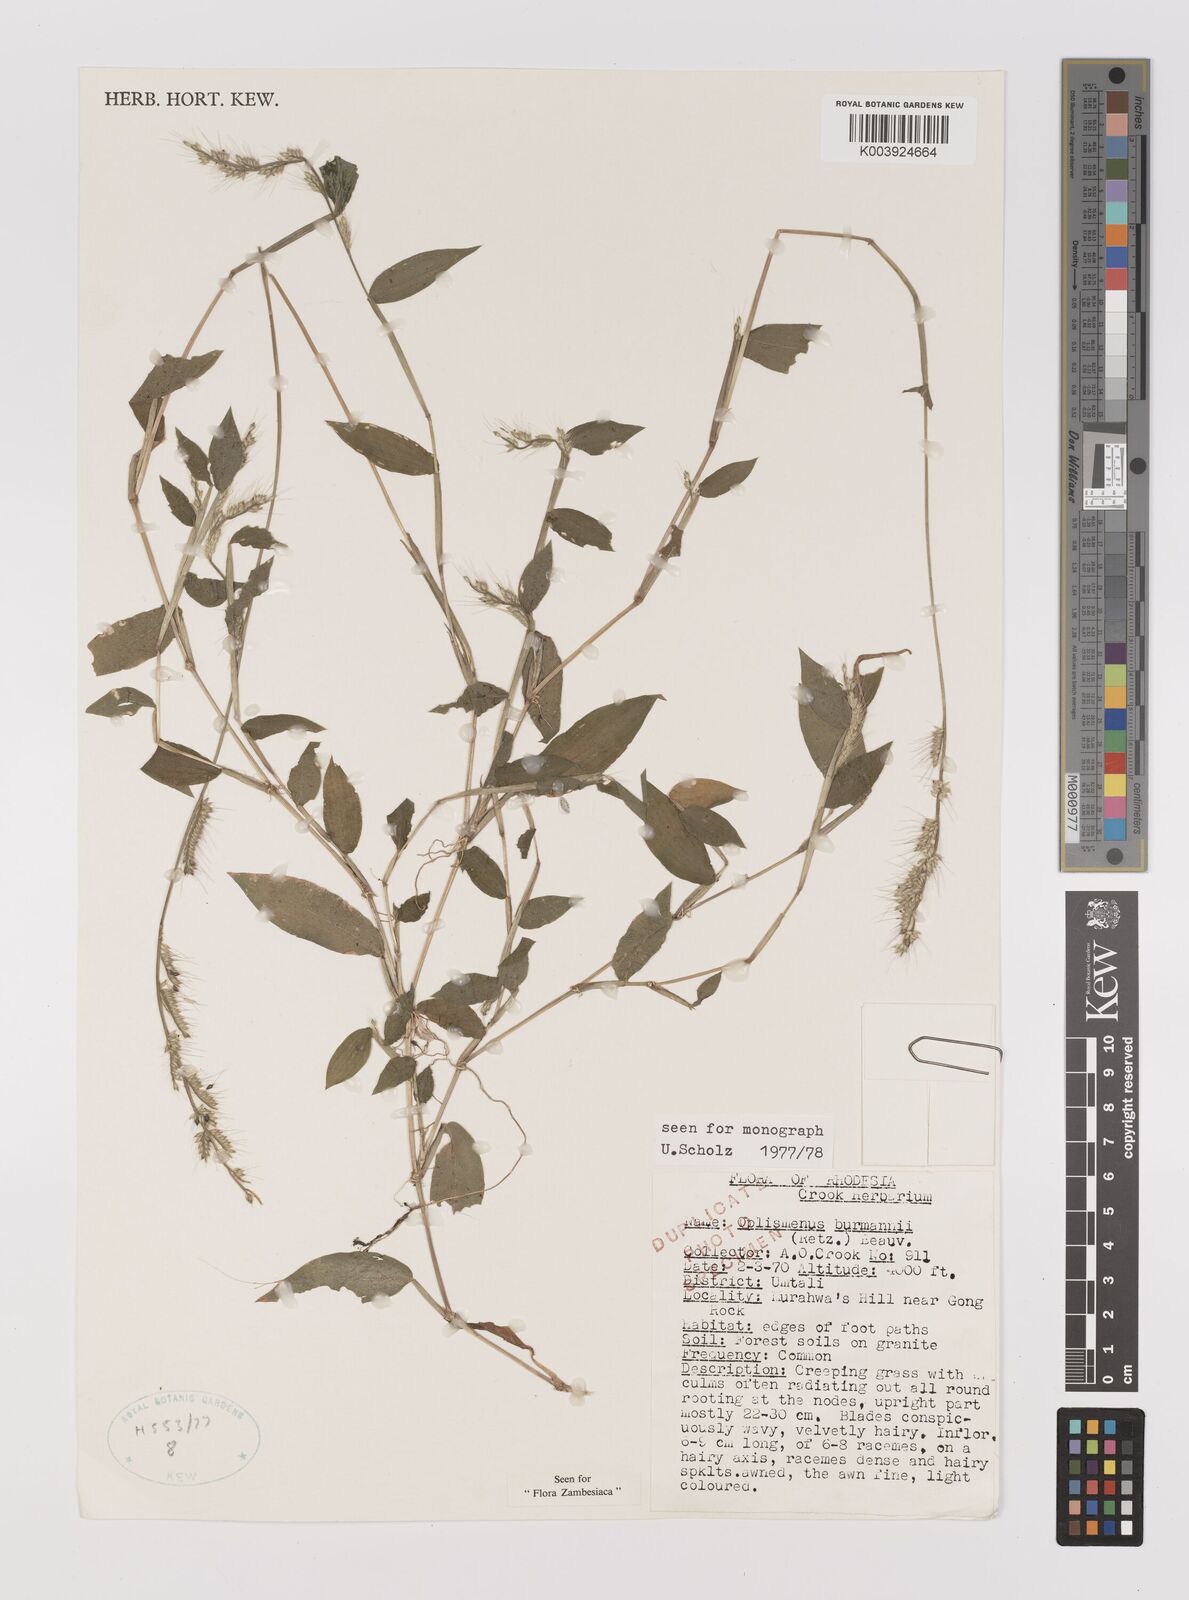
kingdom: Plantae
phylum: Tracheophyta
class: Liliopsida
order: Poales
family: Poaceae
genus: Oplismenus
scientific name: Oplismenus burmanni
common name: Burmann's basketgrass
